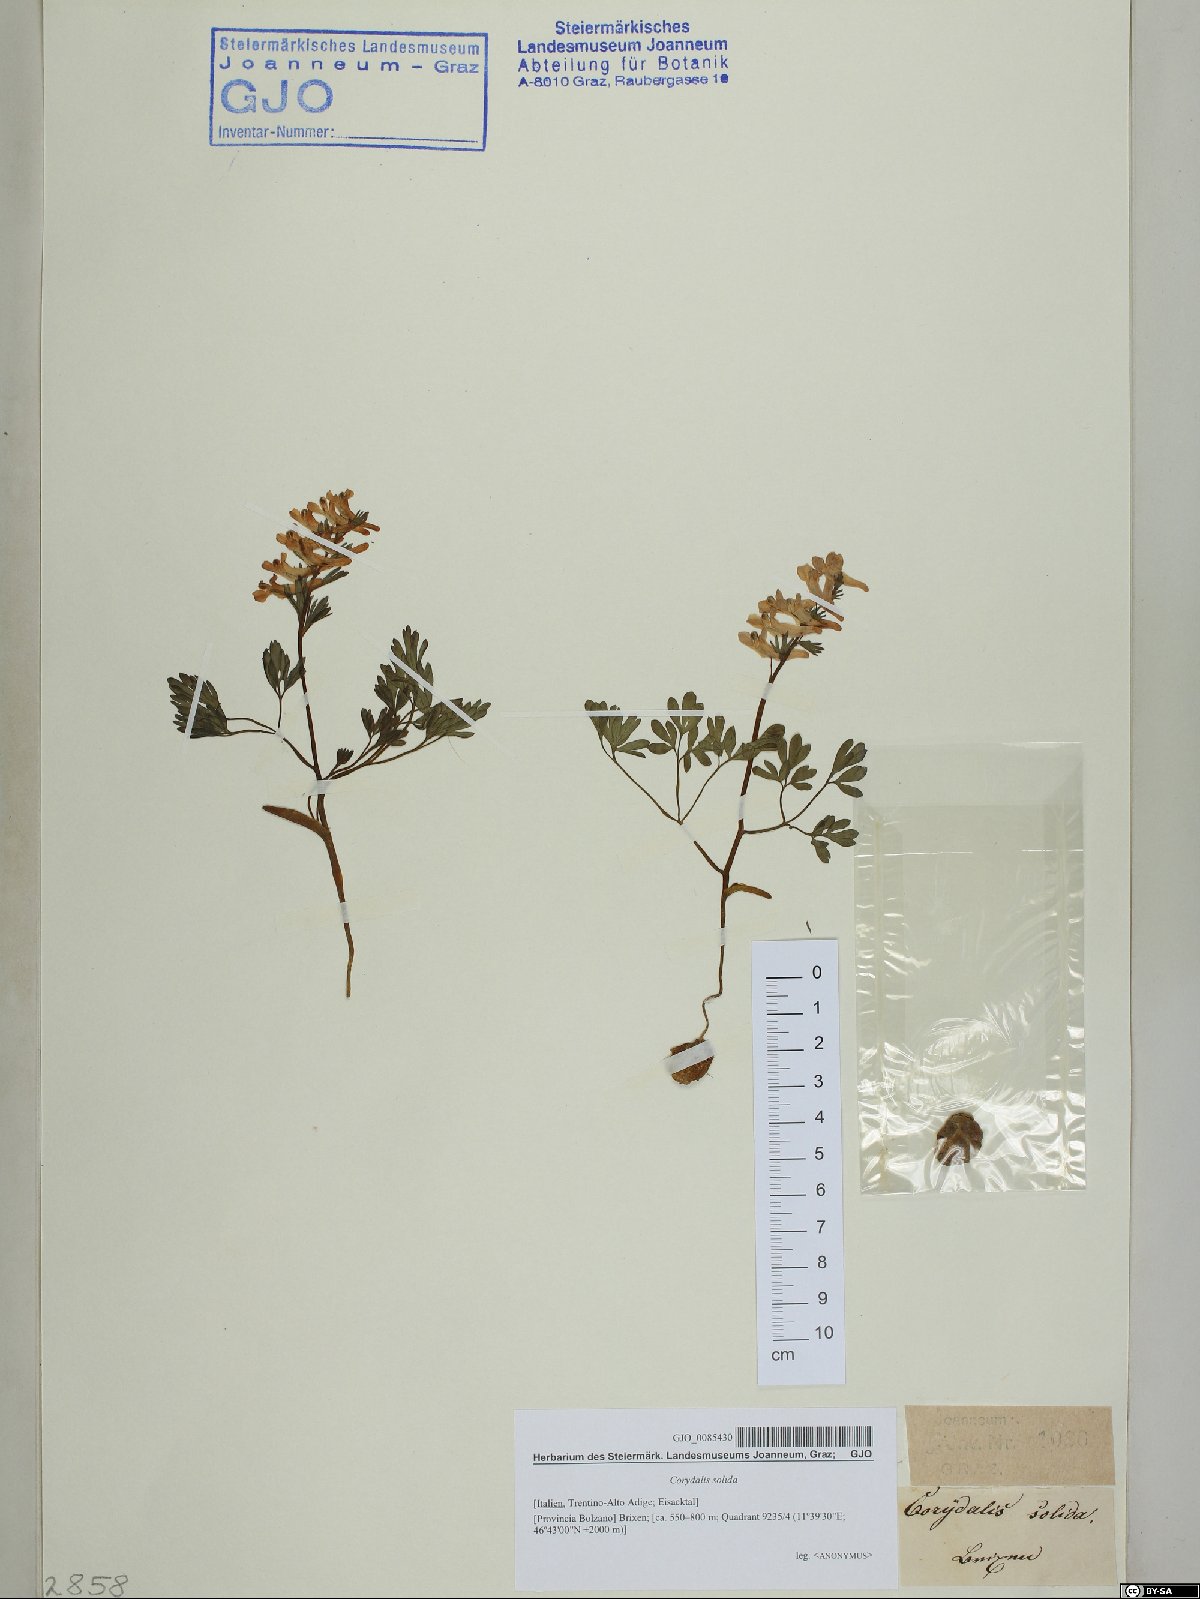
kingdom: Plantae
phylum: Tracheophyta
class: Magnoliopsida
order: Ranunculales
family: Papaveraceae
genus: Corydalis
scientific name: Corydalis solida
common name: Bird-in-a-bush
